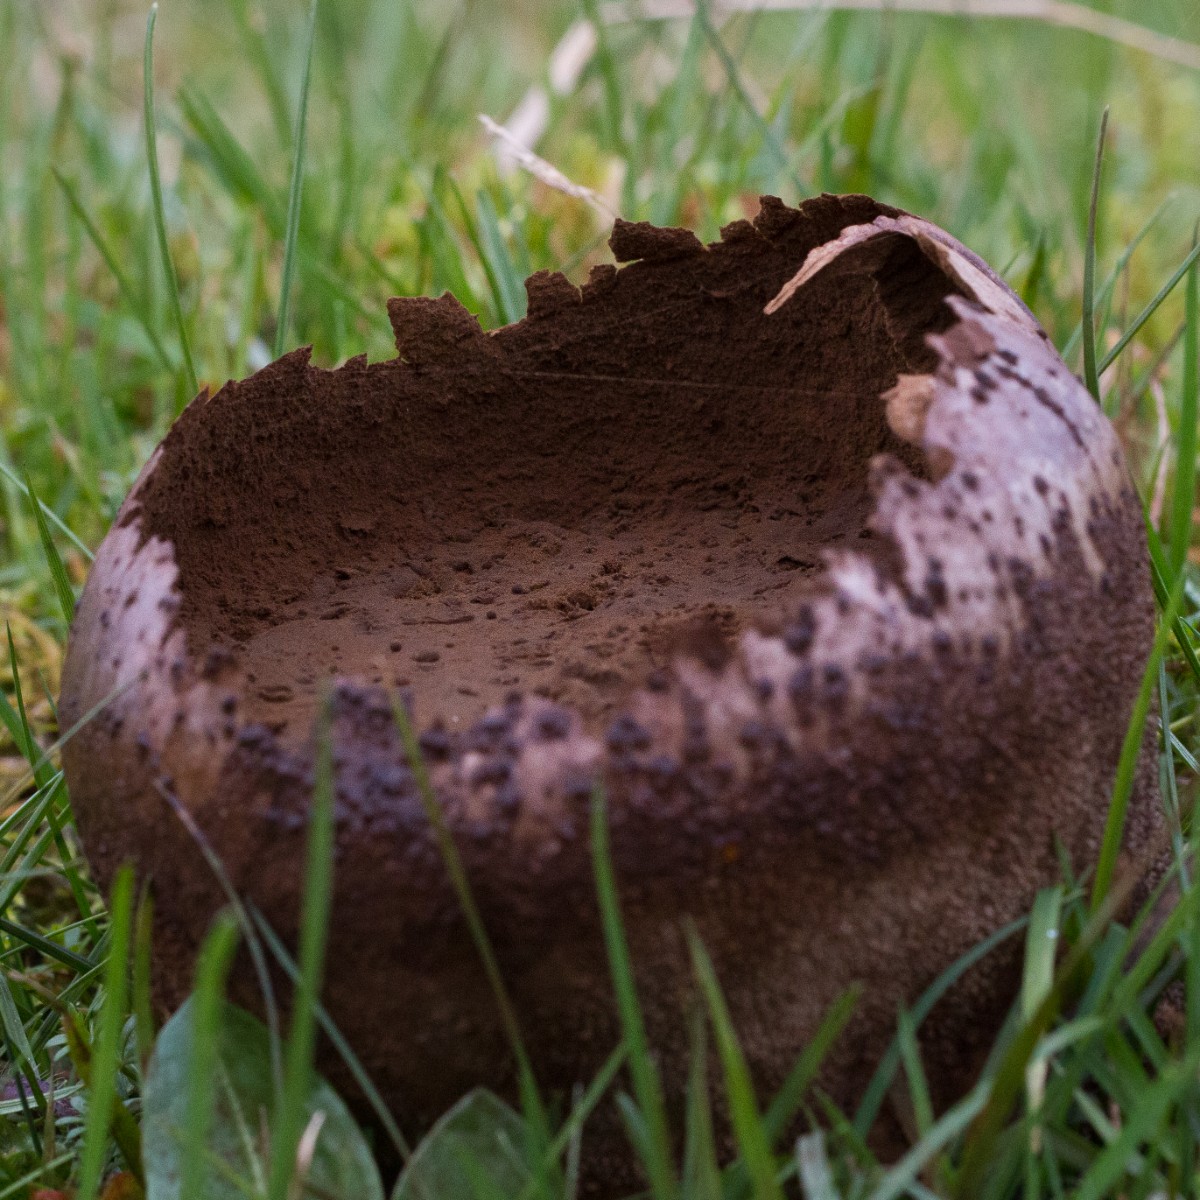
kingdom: Fungi
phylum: Basidiomycota
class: Agaricomycetes
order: Agaricales
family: Lycoperdaceae
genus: Bovistella
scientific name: Bovistella utriformis
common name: skællet støvbold
